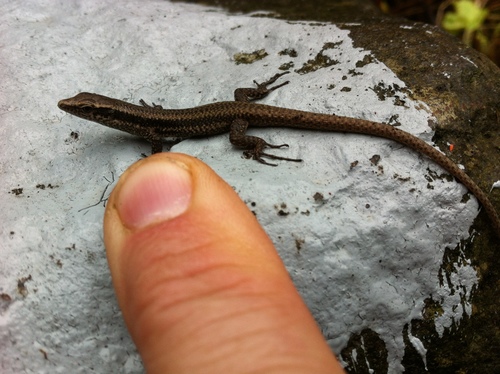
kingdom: Animalia
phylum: Chordata
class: Squamata
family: Lacertidae
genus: Teira
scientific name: Teira dugesii
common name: Madeira lizard
